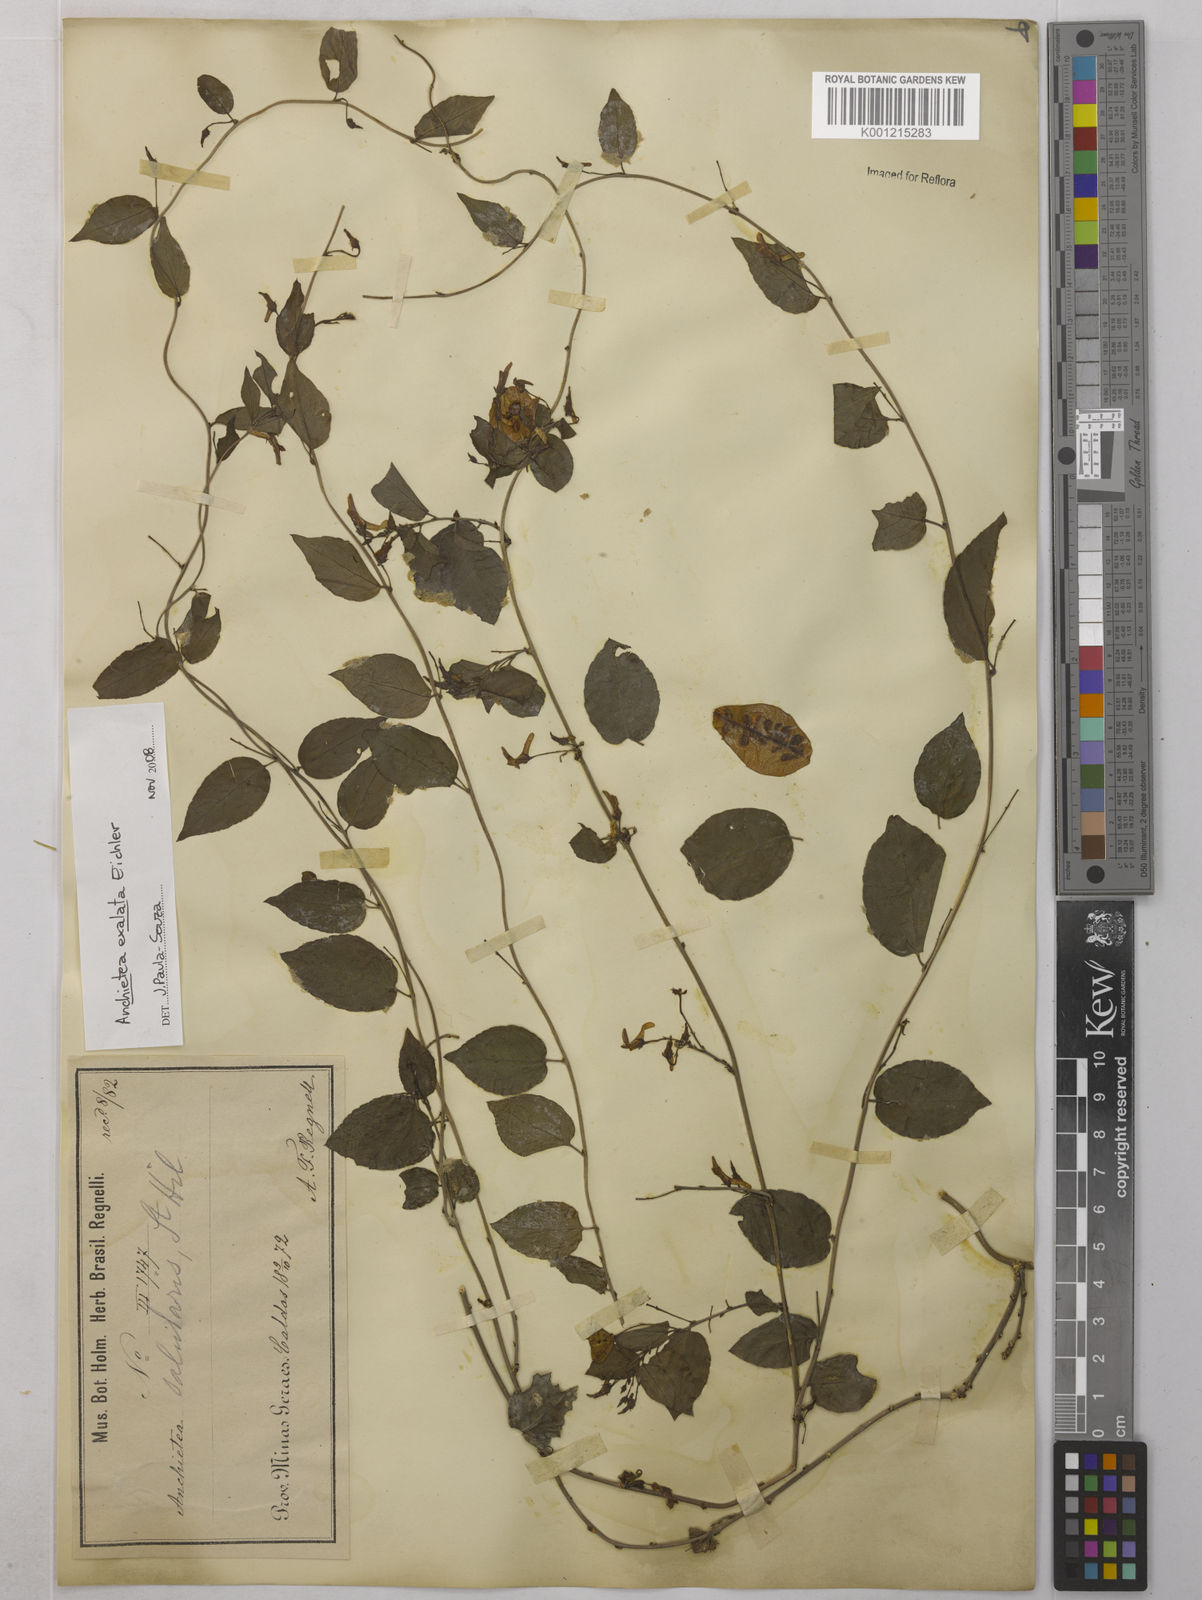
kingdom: Plantae
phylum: Tracheophyta
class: Magnoliopsida
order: Malpighiales
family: Violaceae
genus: Anchietea
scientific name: Anchietea exaltata
